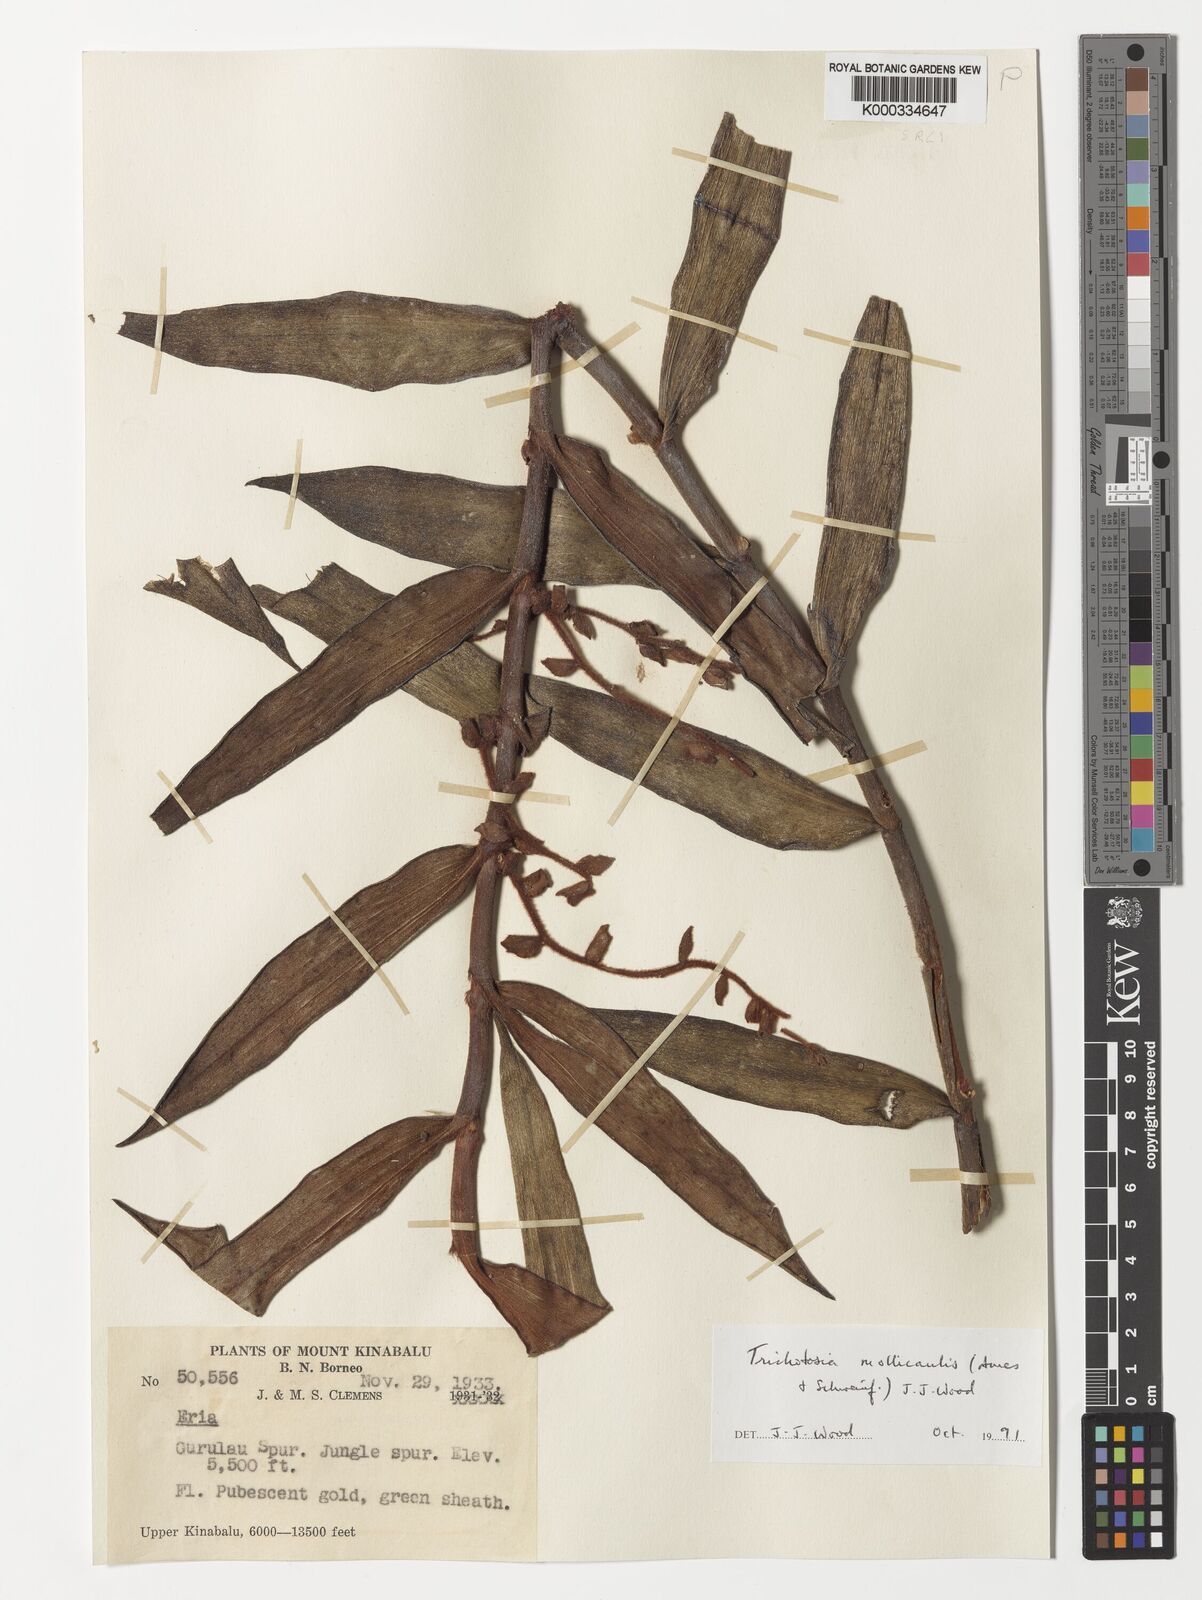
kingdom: Plantae
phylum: Tracheophyta
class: Liliopsida
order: Asparagales
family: Orchidaceae
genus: Trichotosia
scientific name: Trichotosia mollicaulis
